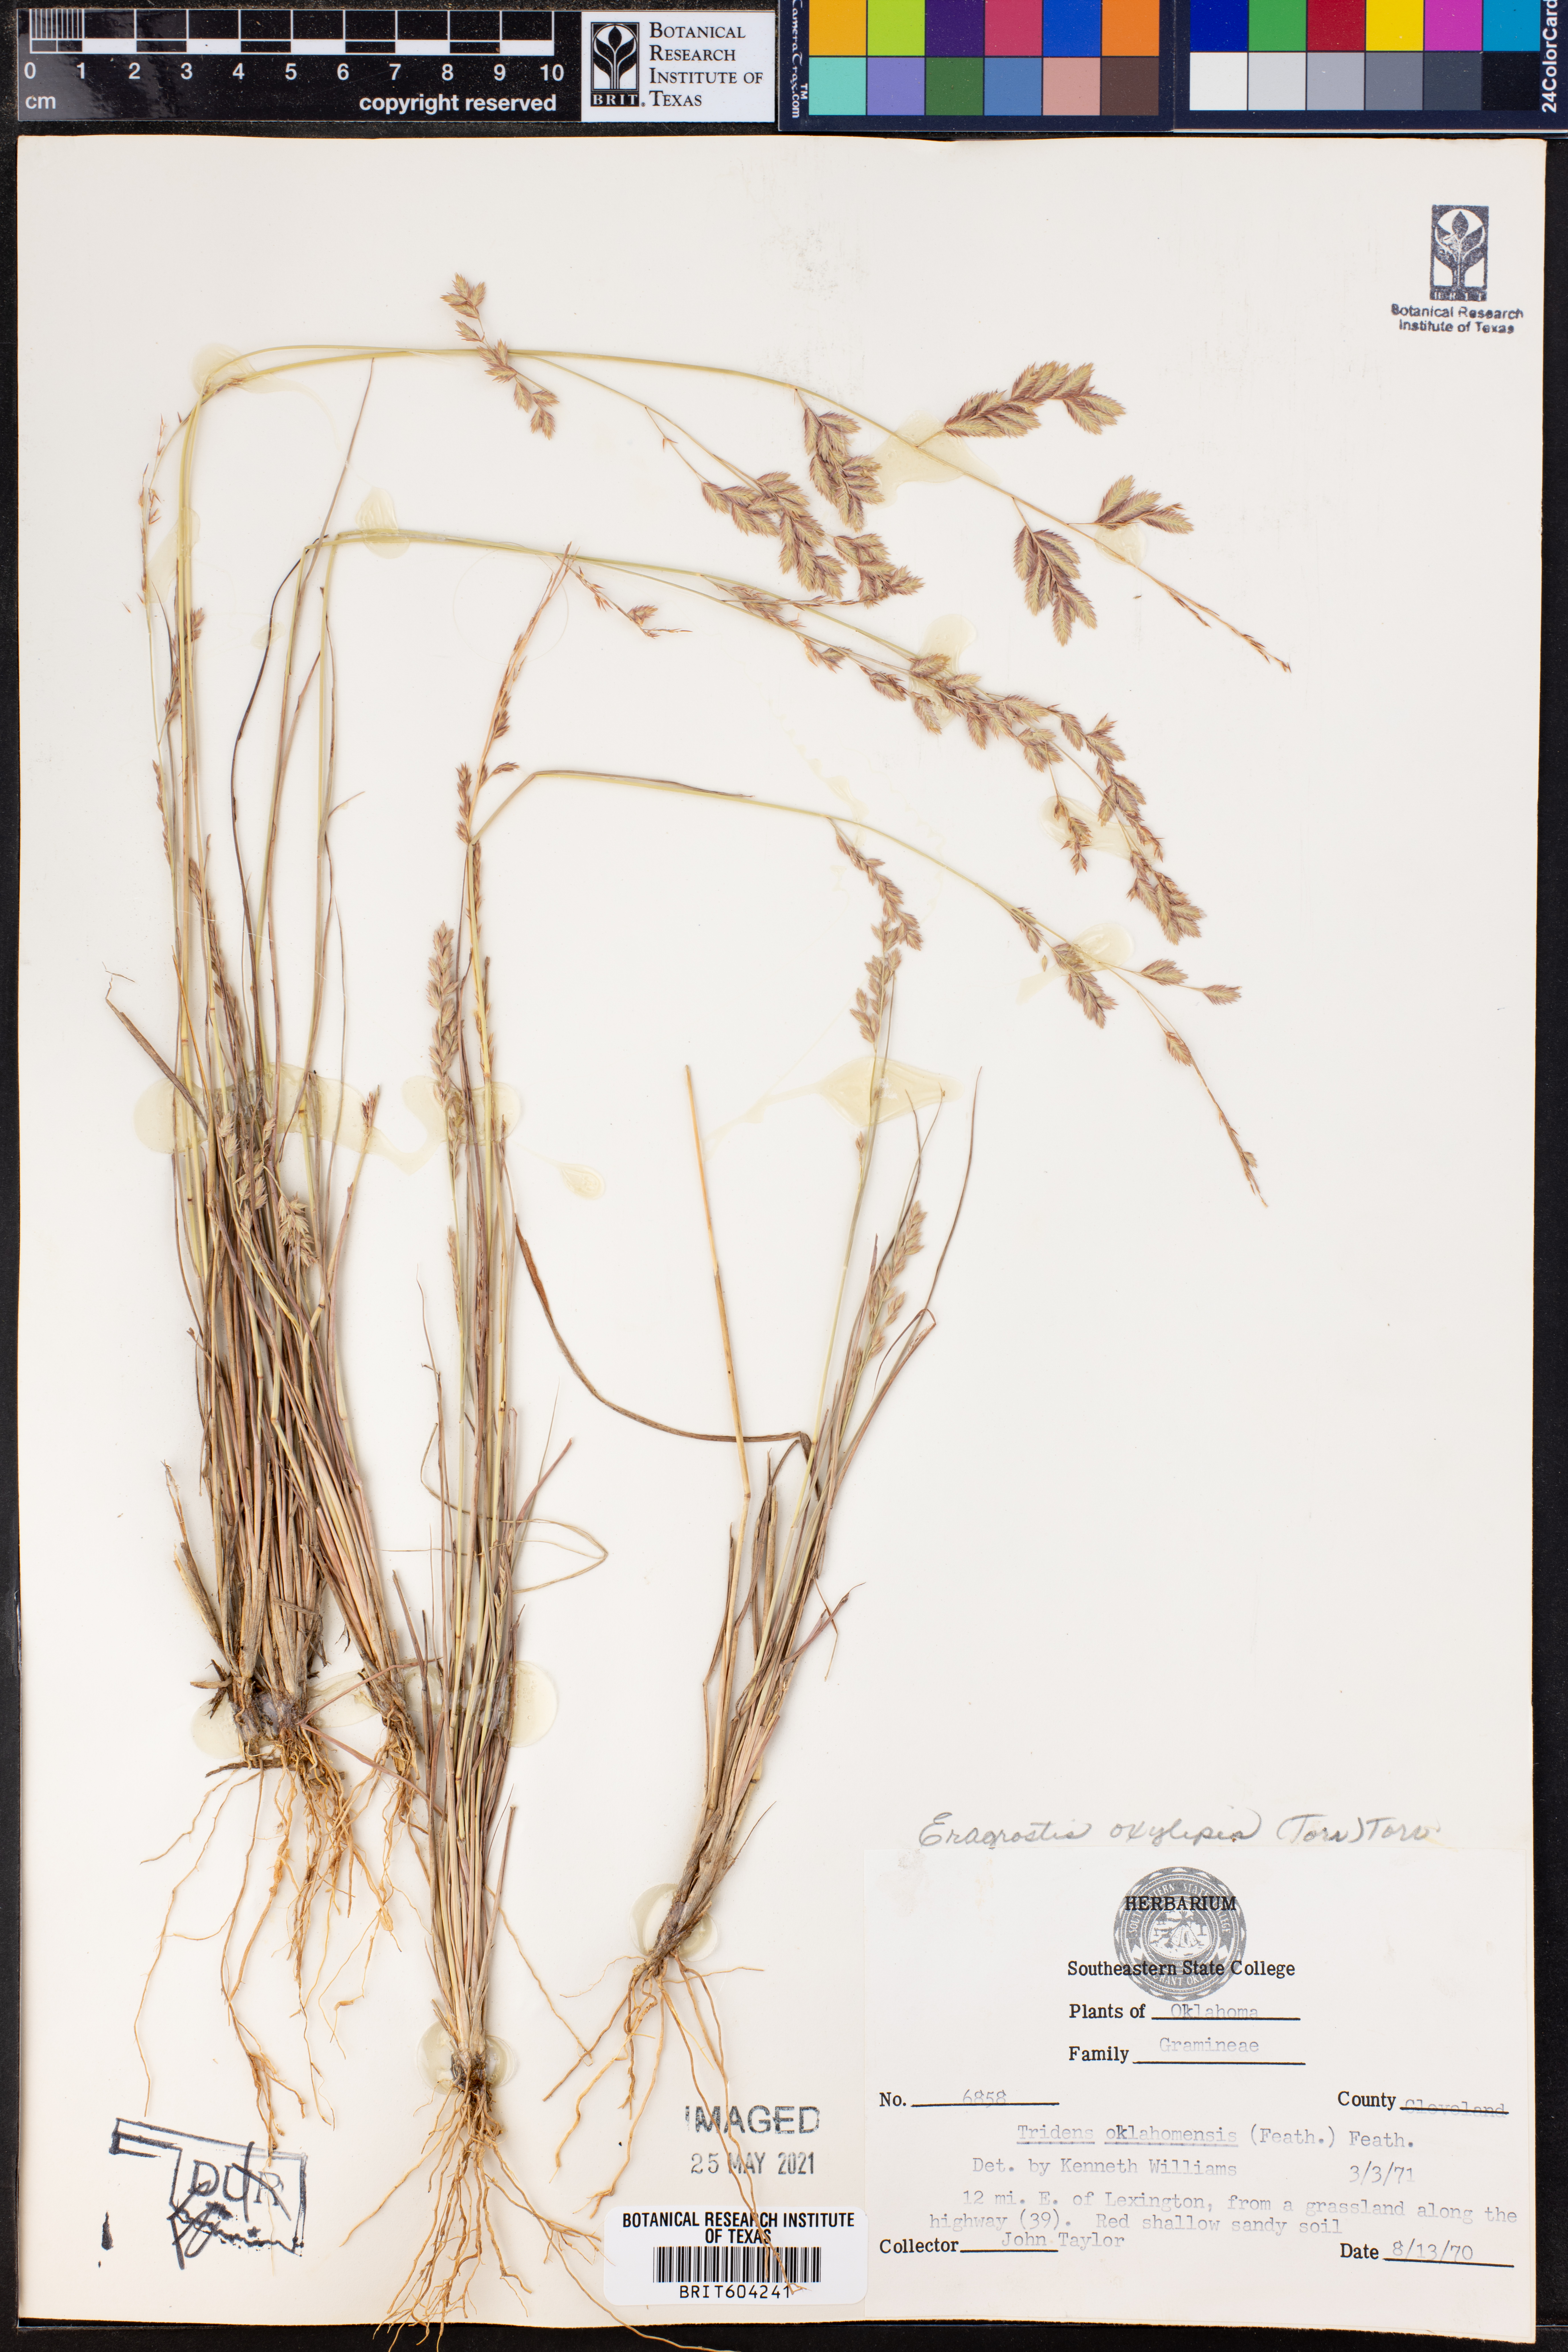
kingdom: Plantae
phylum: Tracheophyta
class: Liliopsida
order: Poales
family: Poaceae
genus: Eragrostis
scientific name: Eragrostis secundiflora
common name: Red love grass
